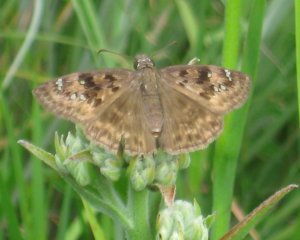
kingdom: Animalia
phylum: Arthropoda
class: Insecta
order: Lepidoptera
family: Hesperiidae
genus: Gesta
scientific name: Gesta
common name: Horace's Duskywing
